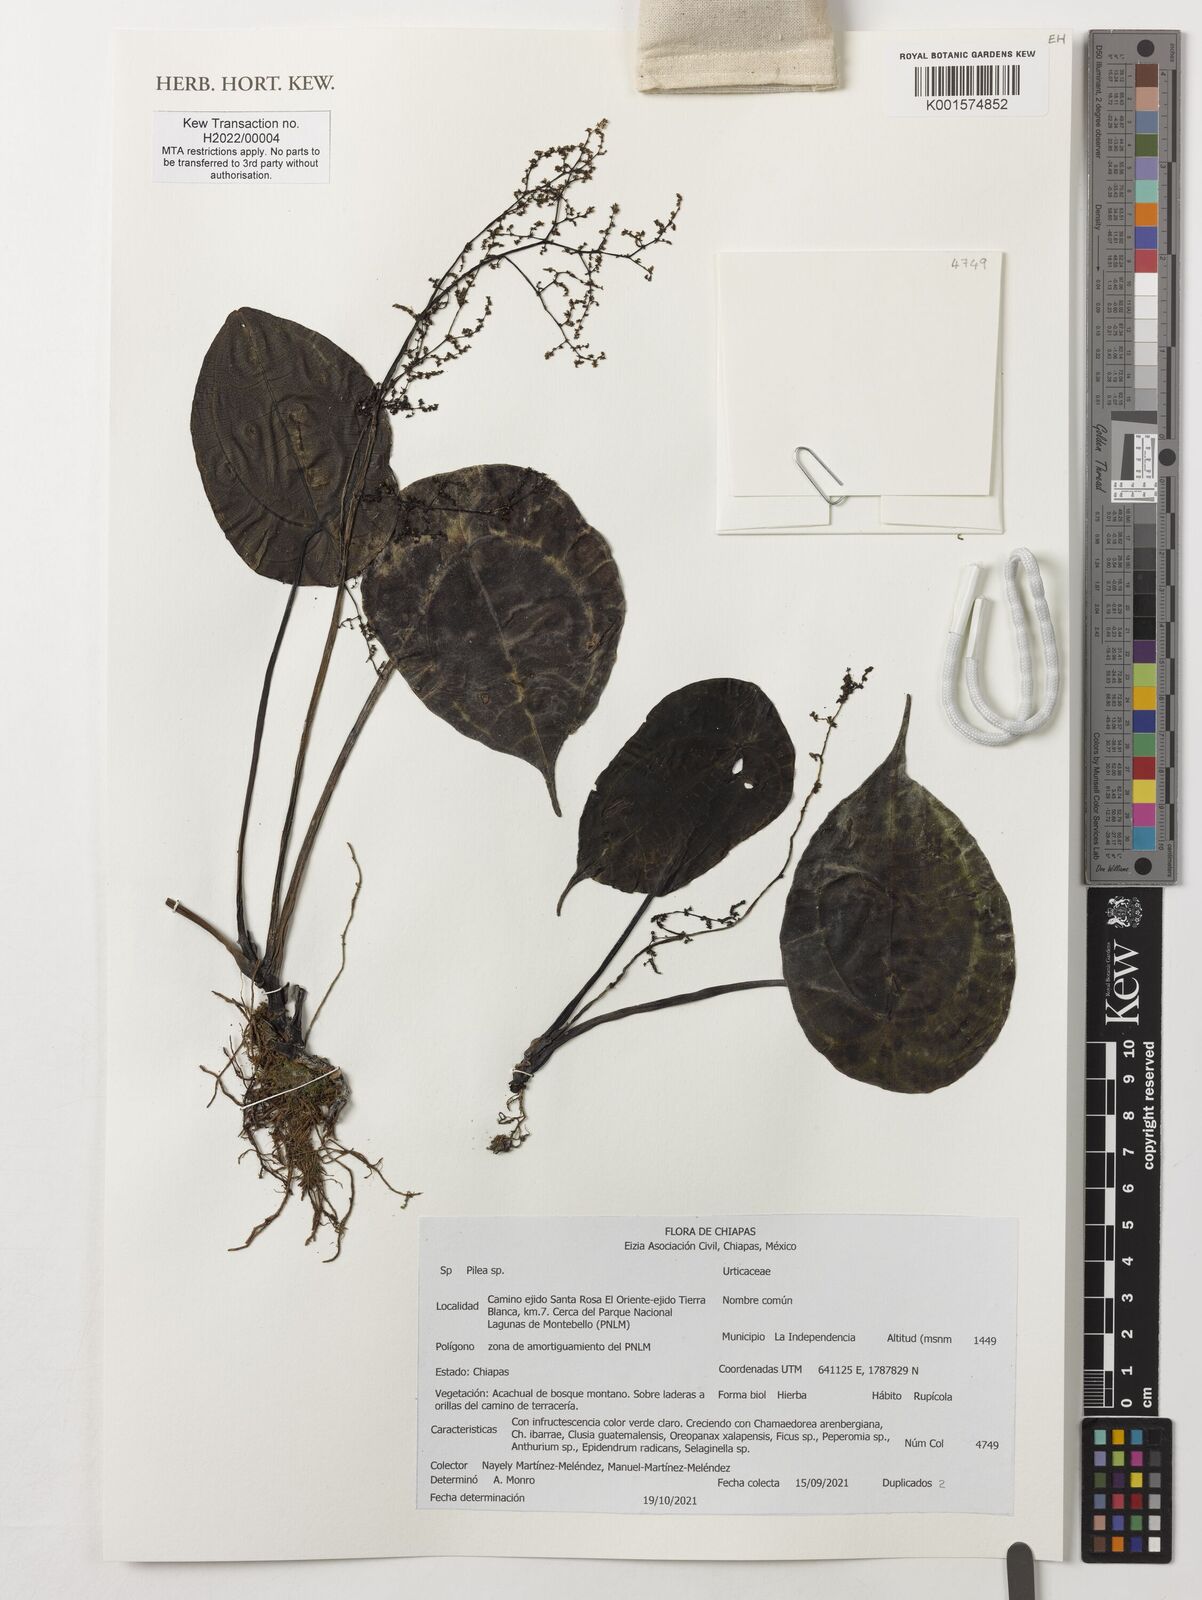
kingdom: Plantae
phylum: Tracheophyta
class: Magnoliopsida
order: Rosales
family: Urticaceae
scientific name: Urticaceae
